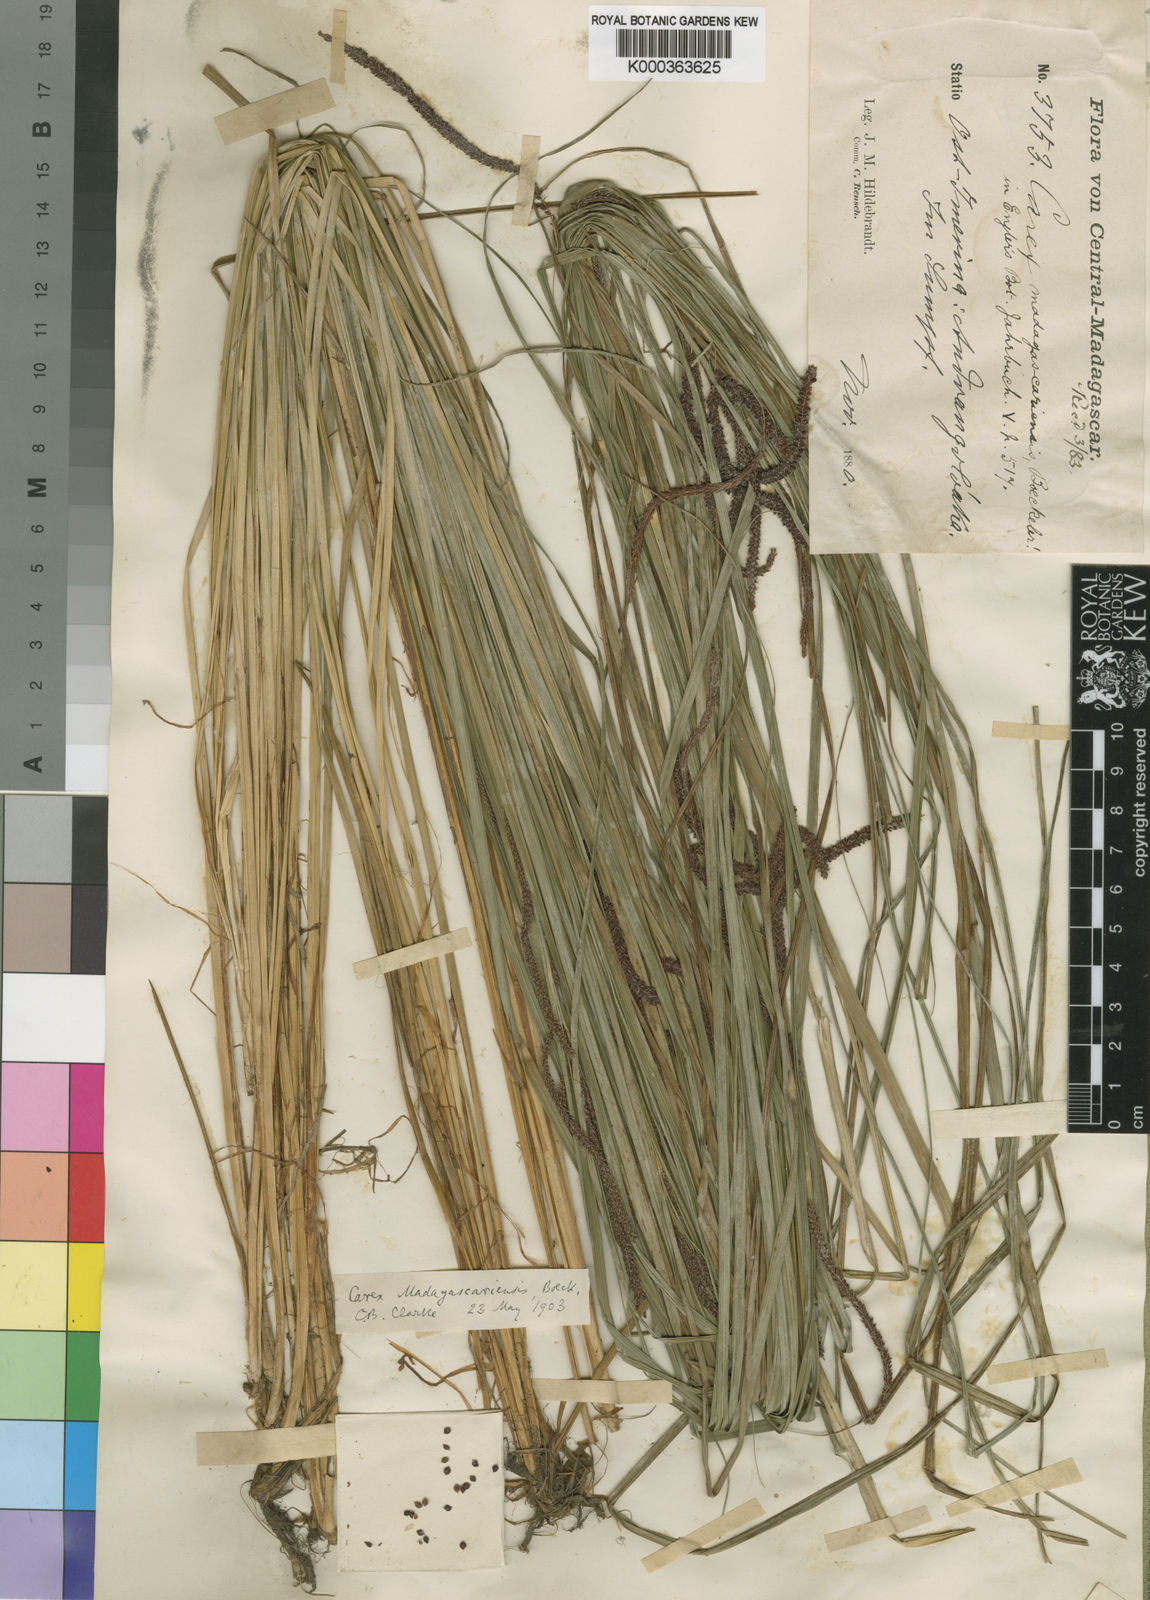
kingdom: Plantae
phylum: Tracheophyta
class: Liliopsida
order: Poales
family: Cyperaceae
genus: Carex
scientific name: Carex madagascariensis
